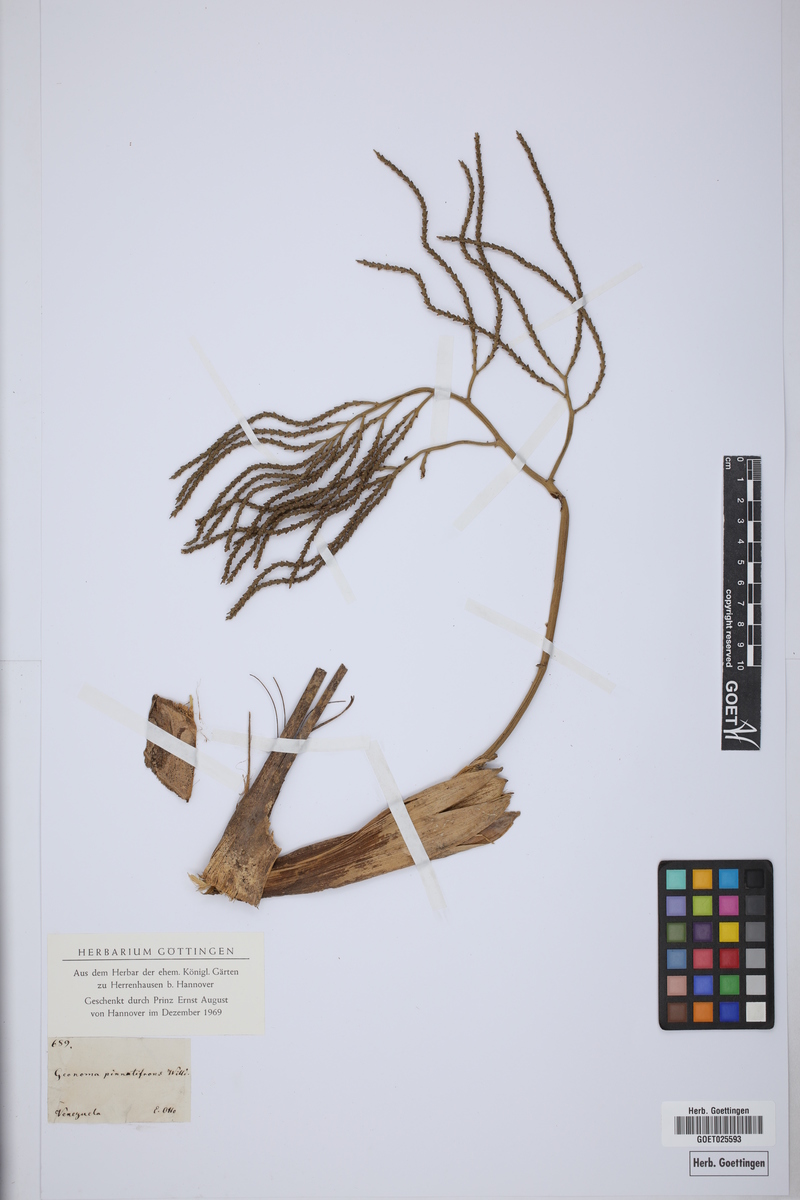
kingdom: Plantae
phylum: Tracheophyta
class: Liliopsida
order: Arecales
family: Arecaceae
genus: Geonoma
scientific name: Geonoma pinnatifrons
